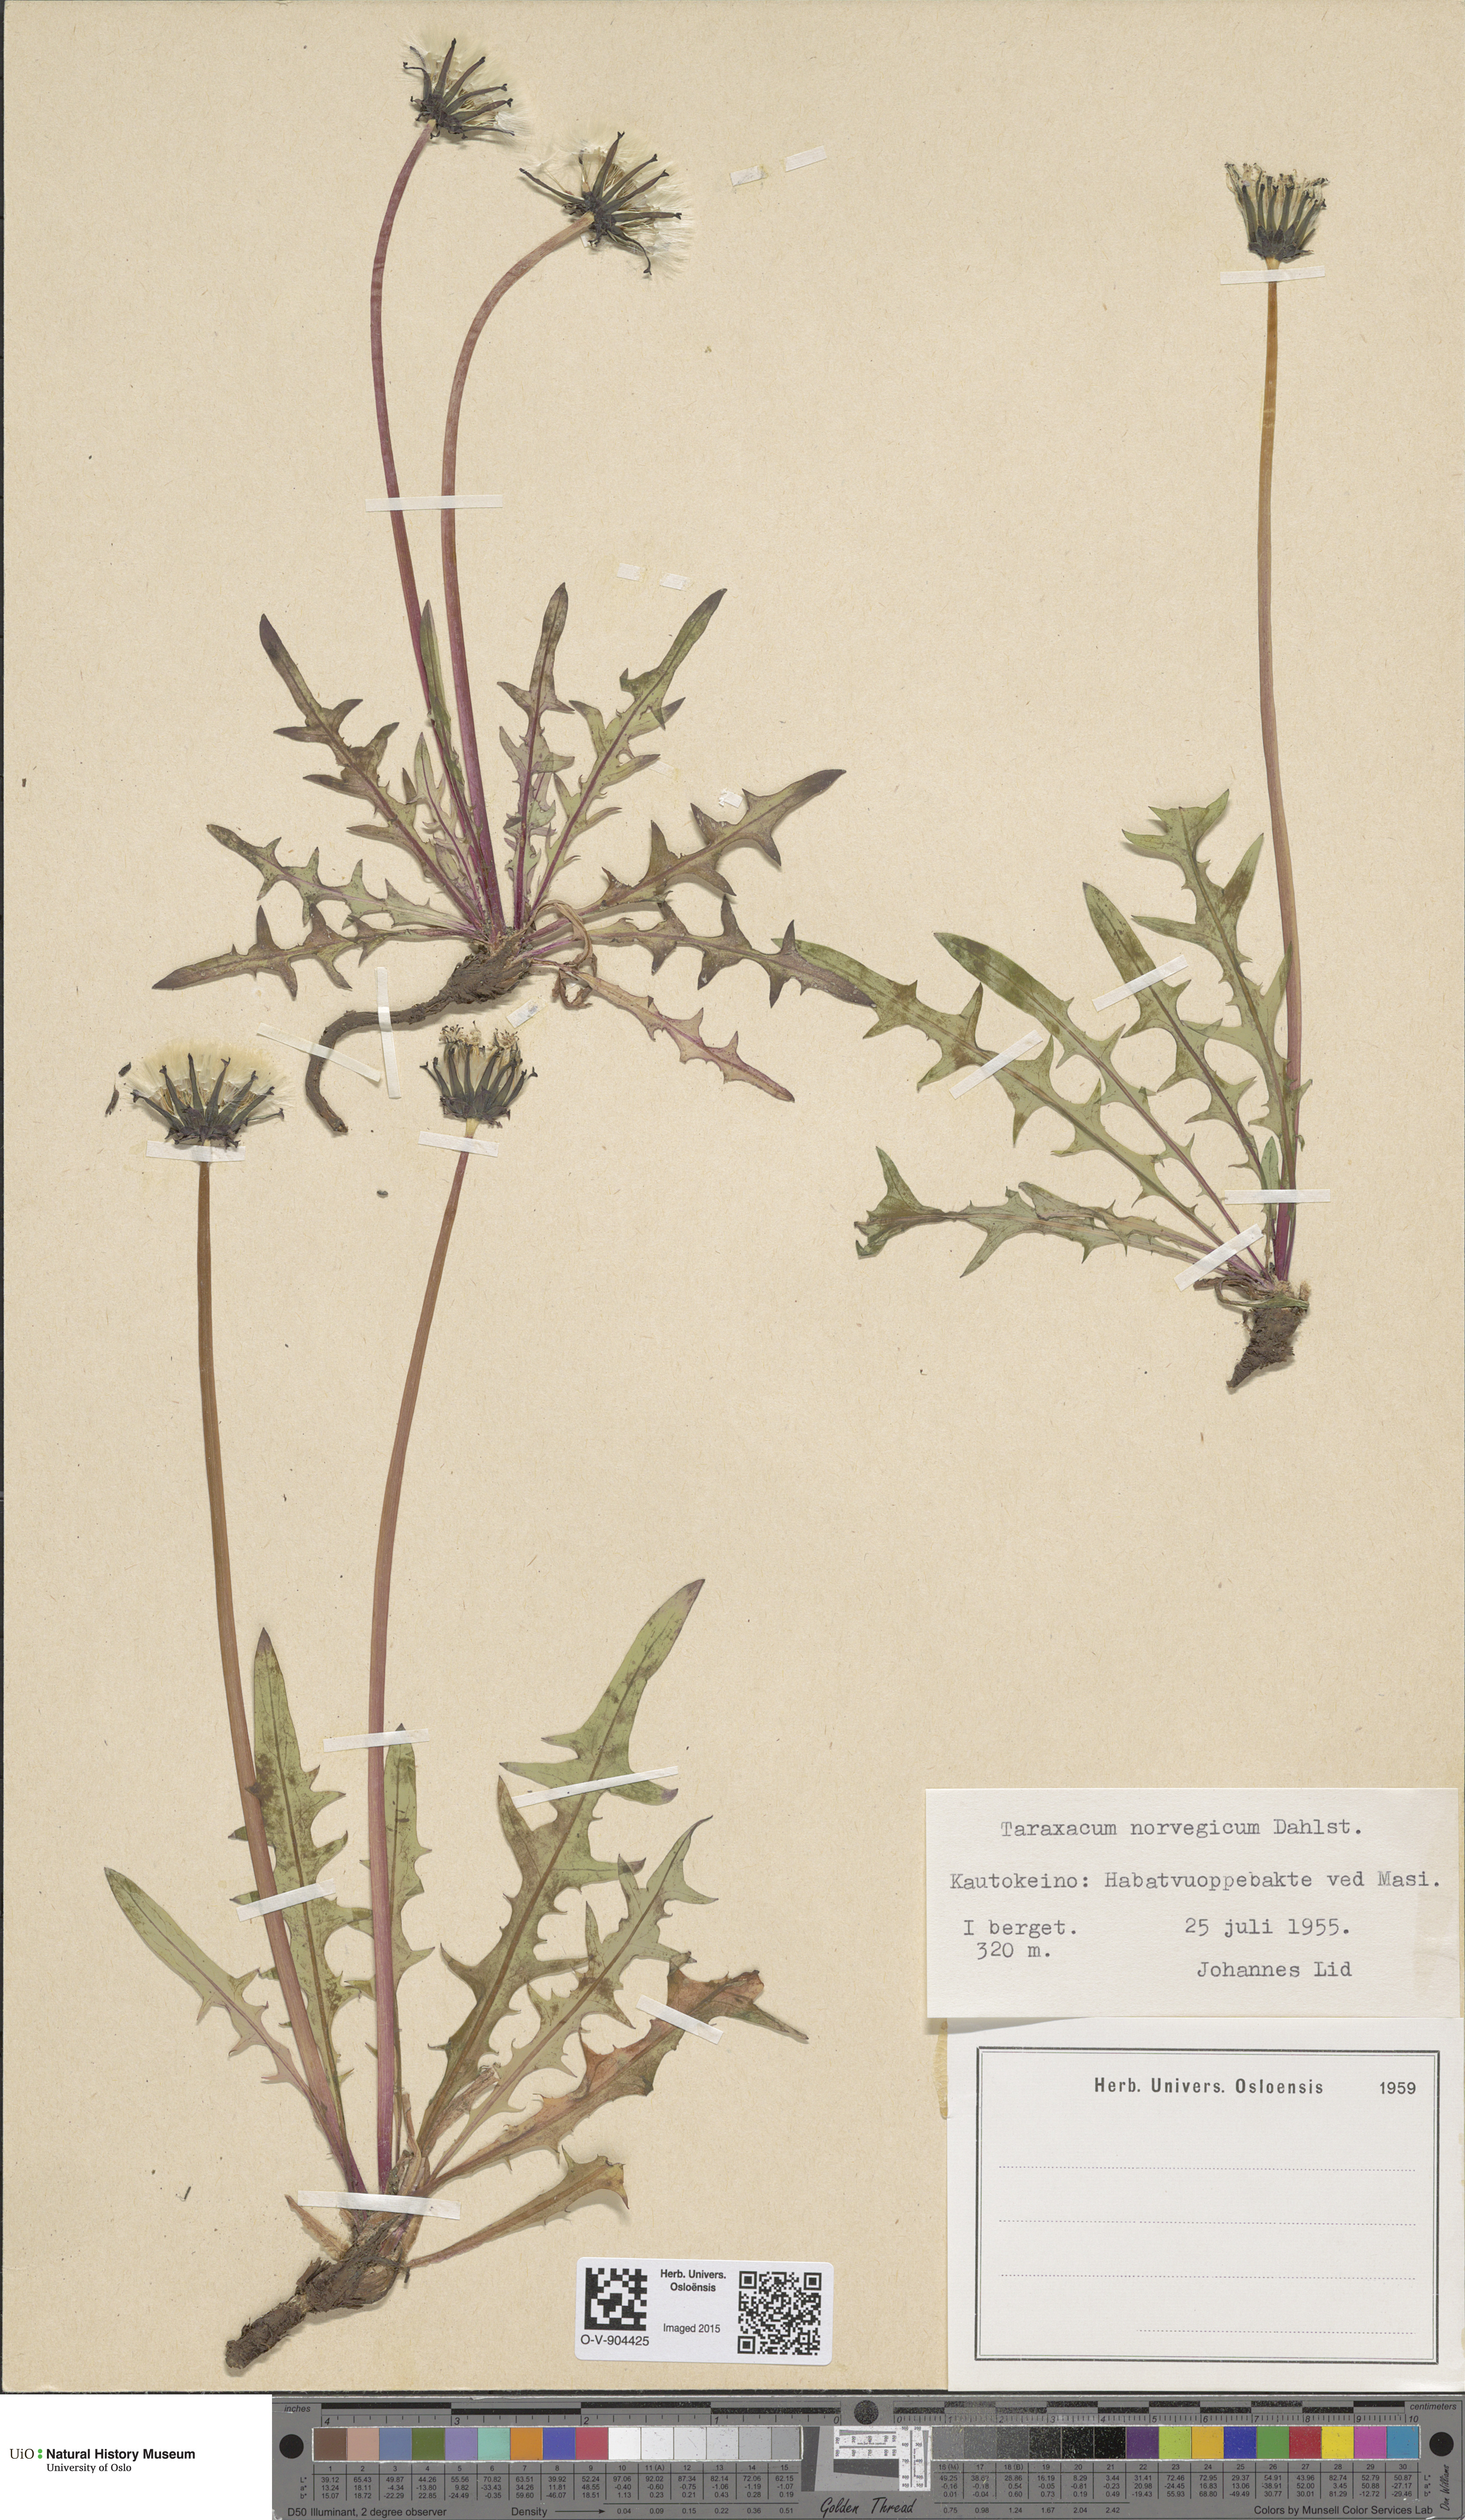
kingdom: Plantae
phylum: Tracheophyta
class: Magnoliopsida
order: Asterales
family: Asteraceae
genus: Taraxacum
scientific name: Taraxacum norvegicum
